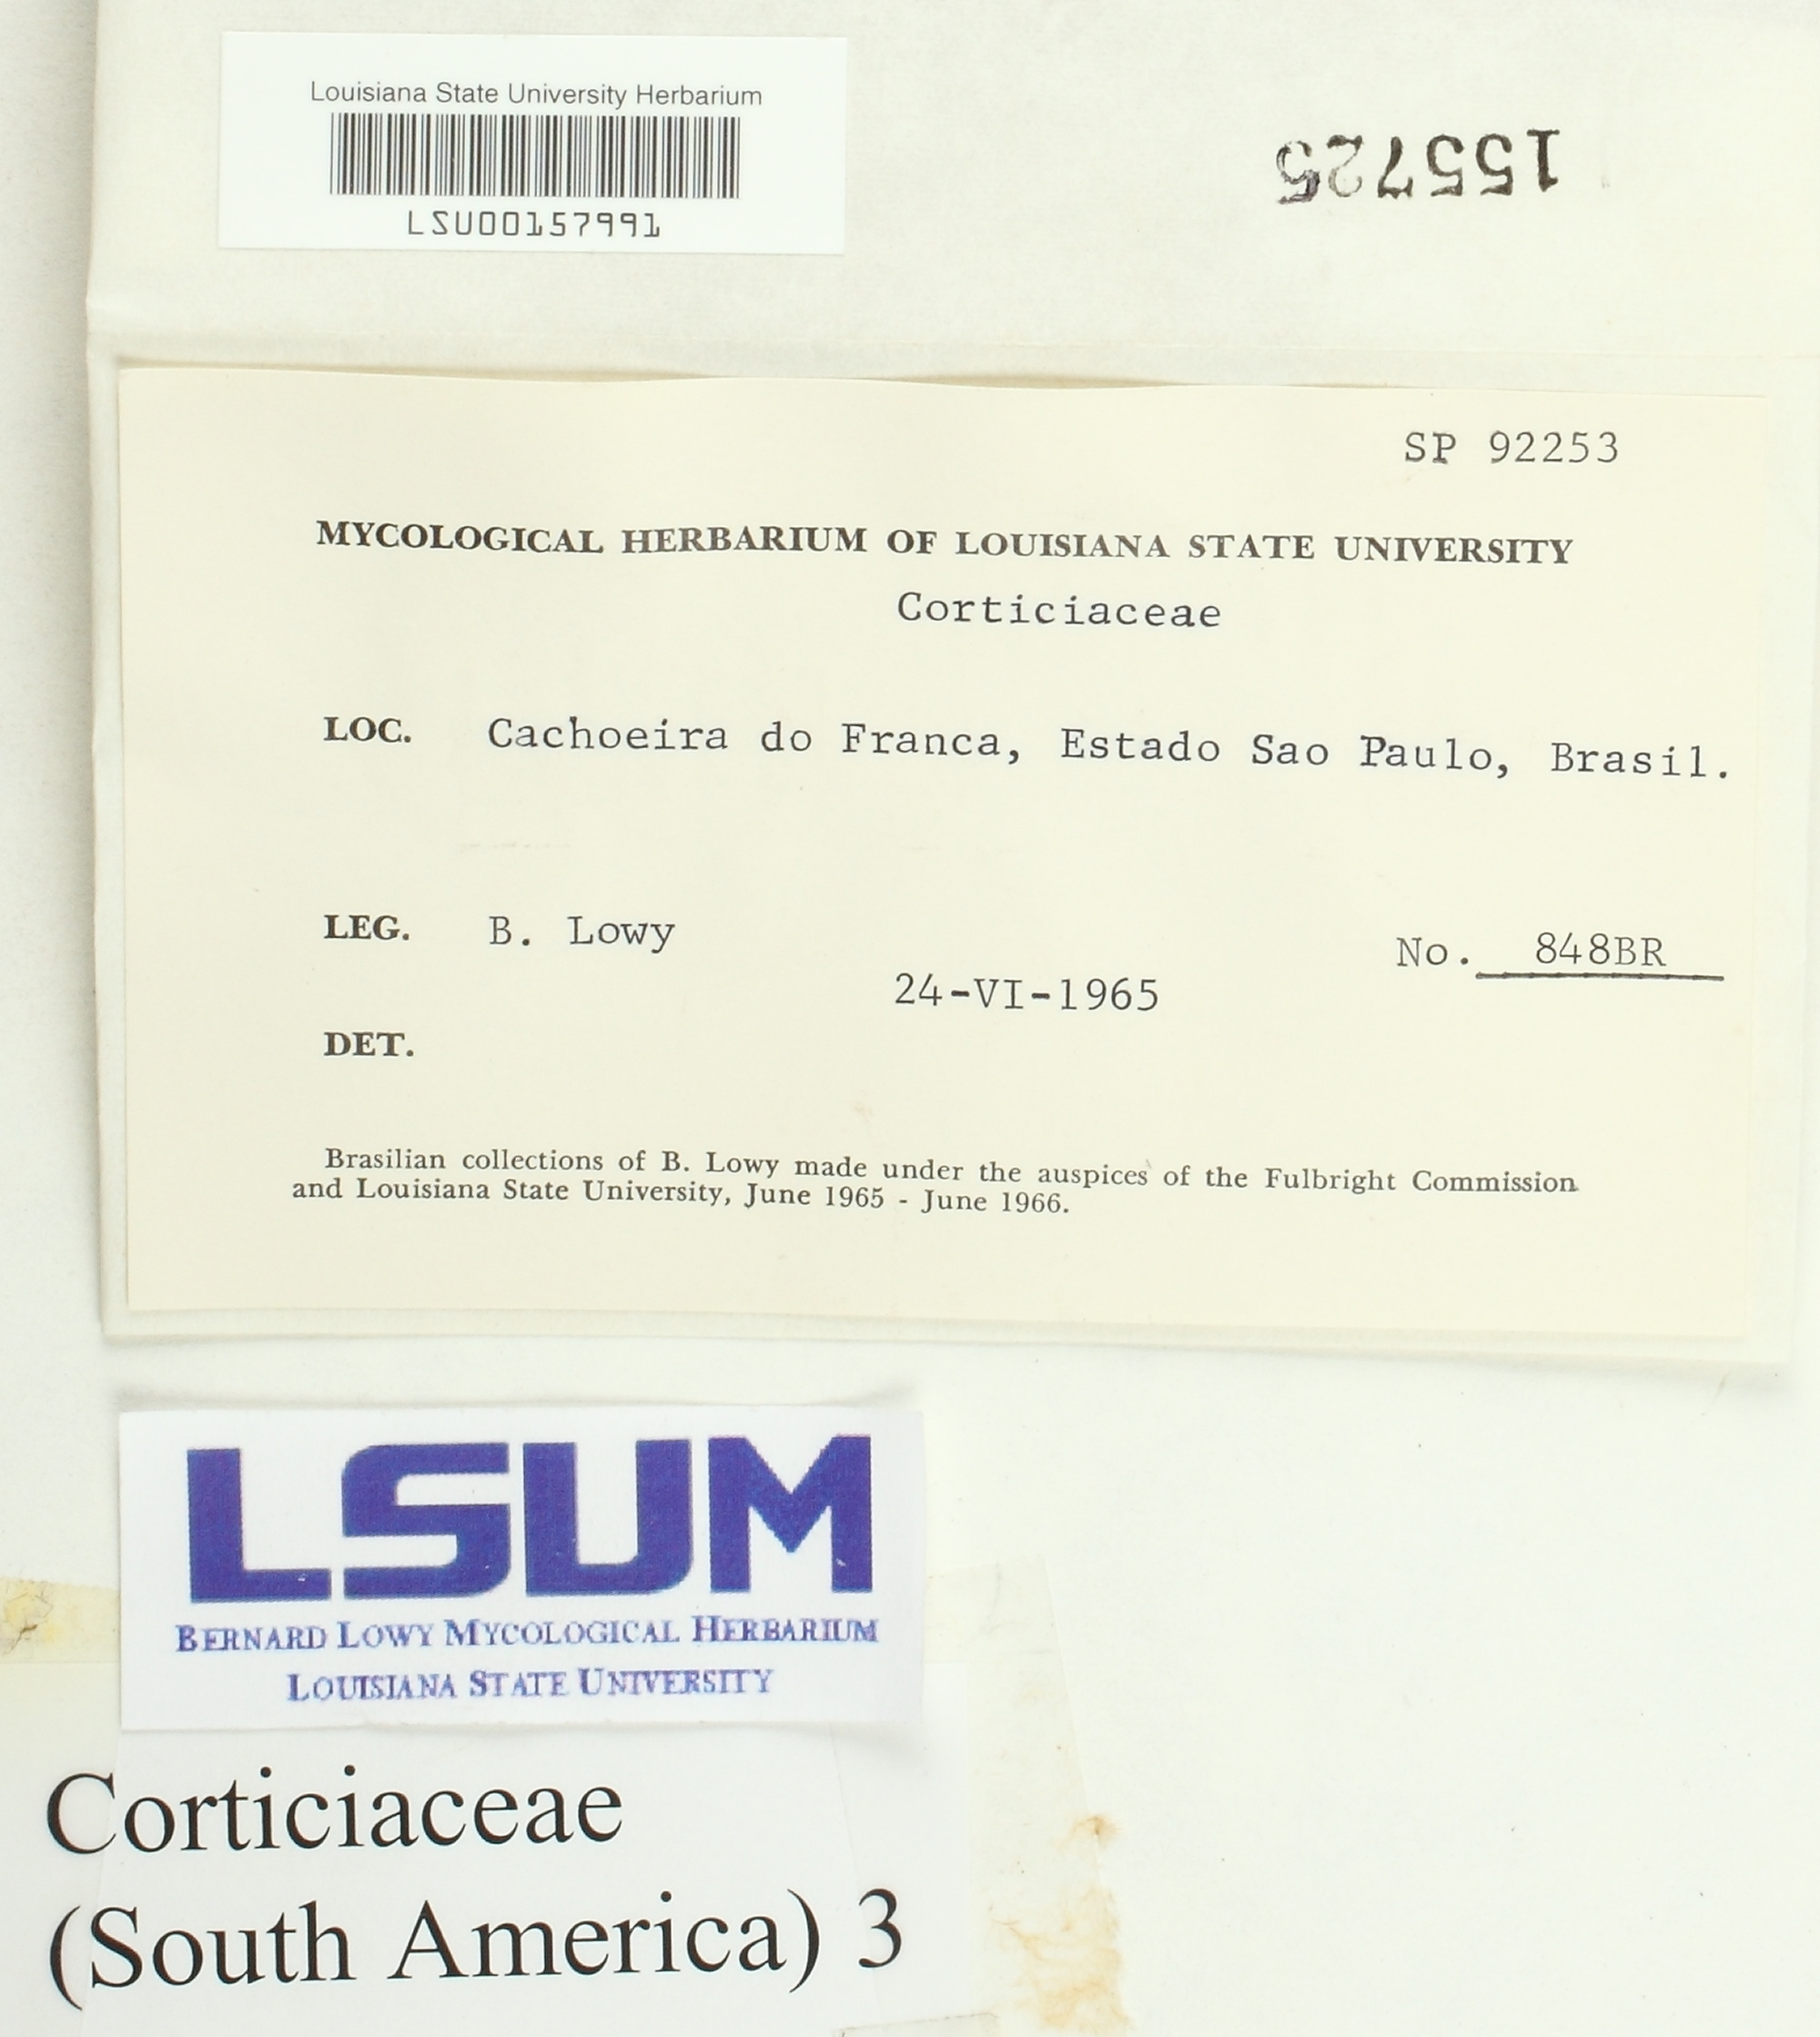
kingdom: Fungi
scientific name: Fungi
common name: Fungi
